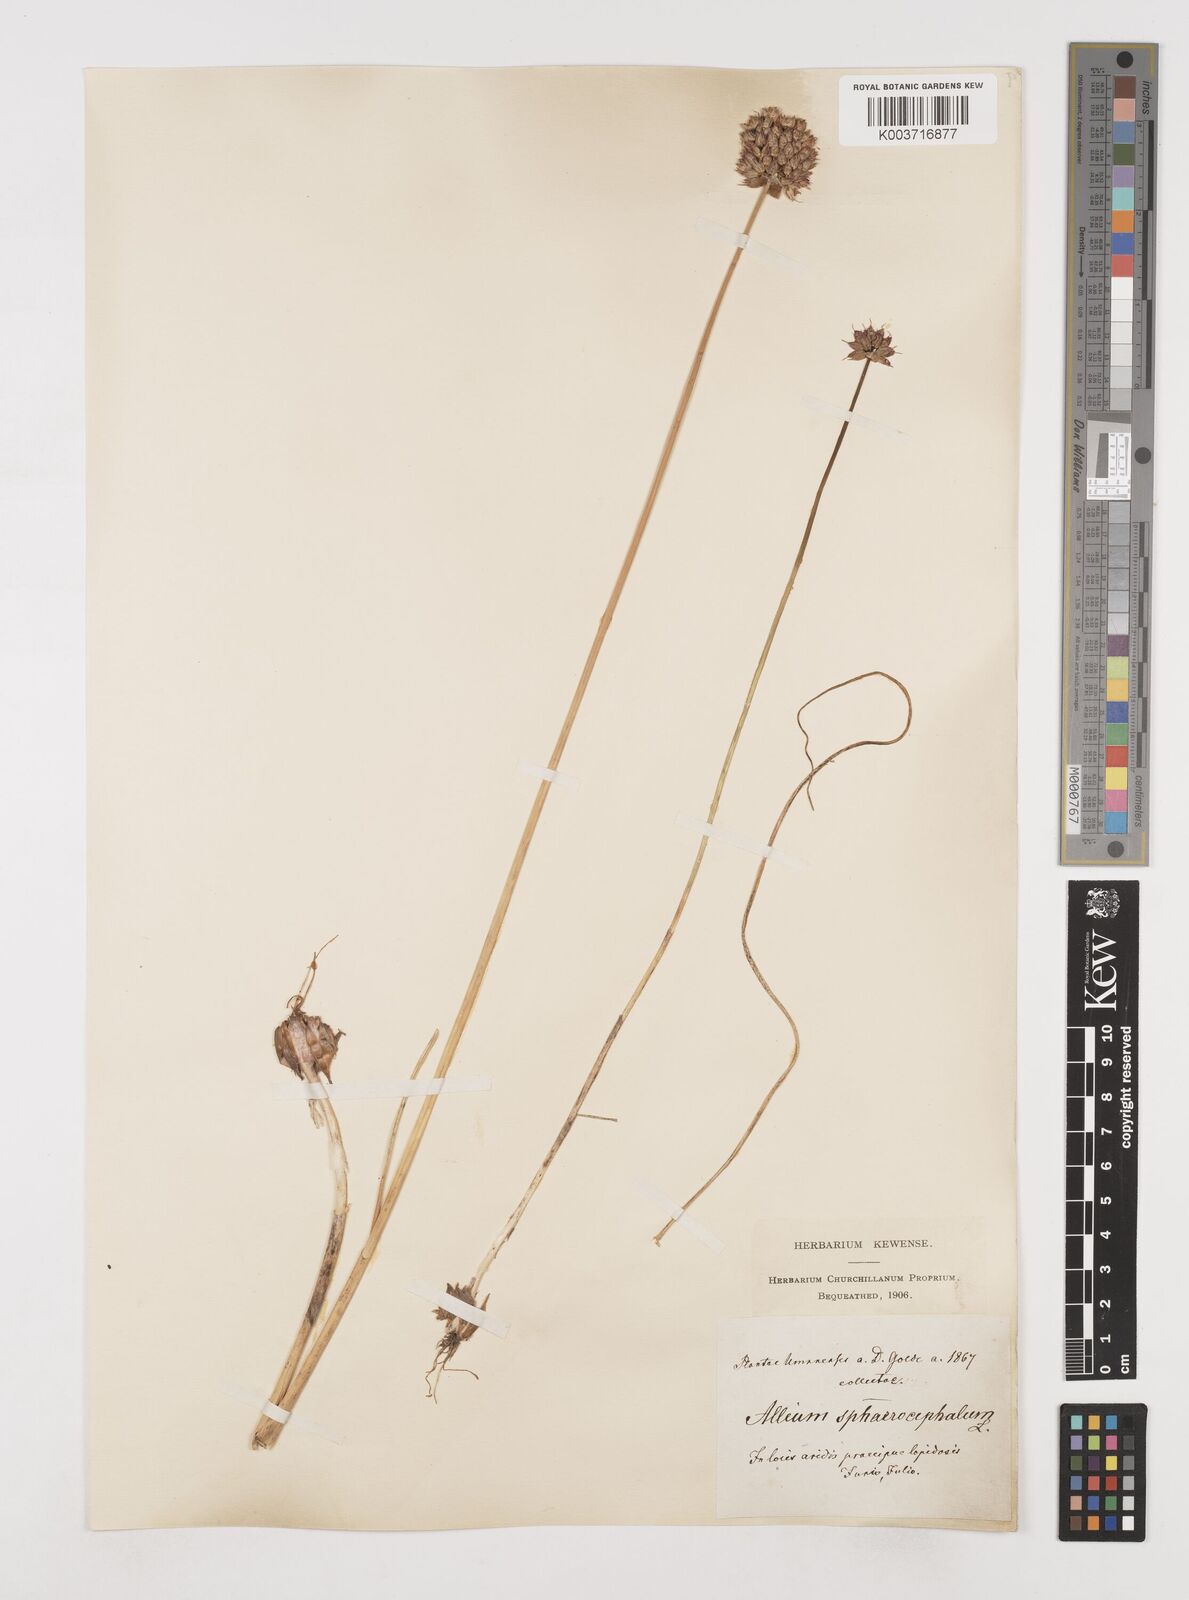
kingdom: Plantae
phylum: Tracheophyta
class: Liliopsida
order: Asparagales
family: Amaryllidaceae
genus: Allium
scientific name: Allium sphaerocephalon
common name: Round-headed leek
